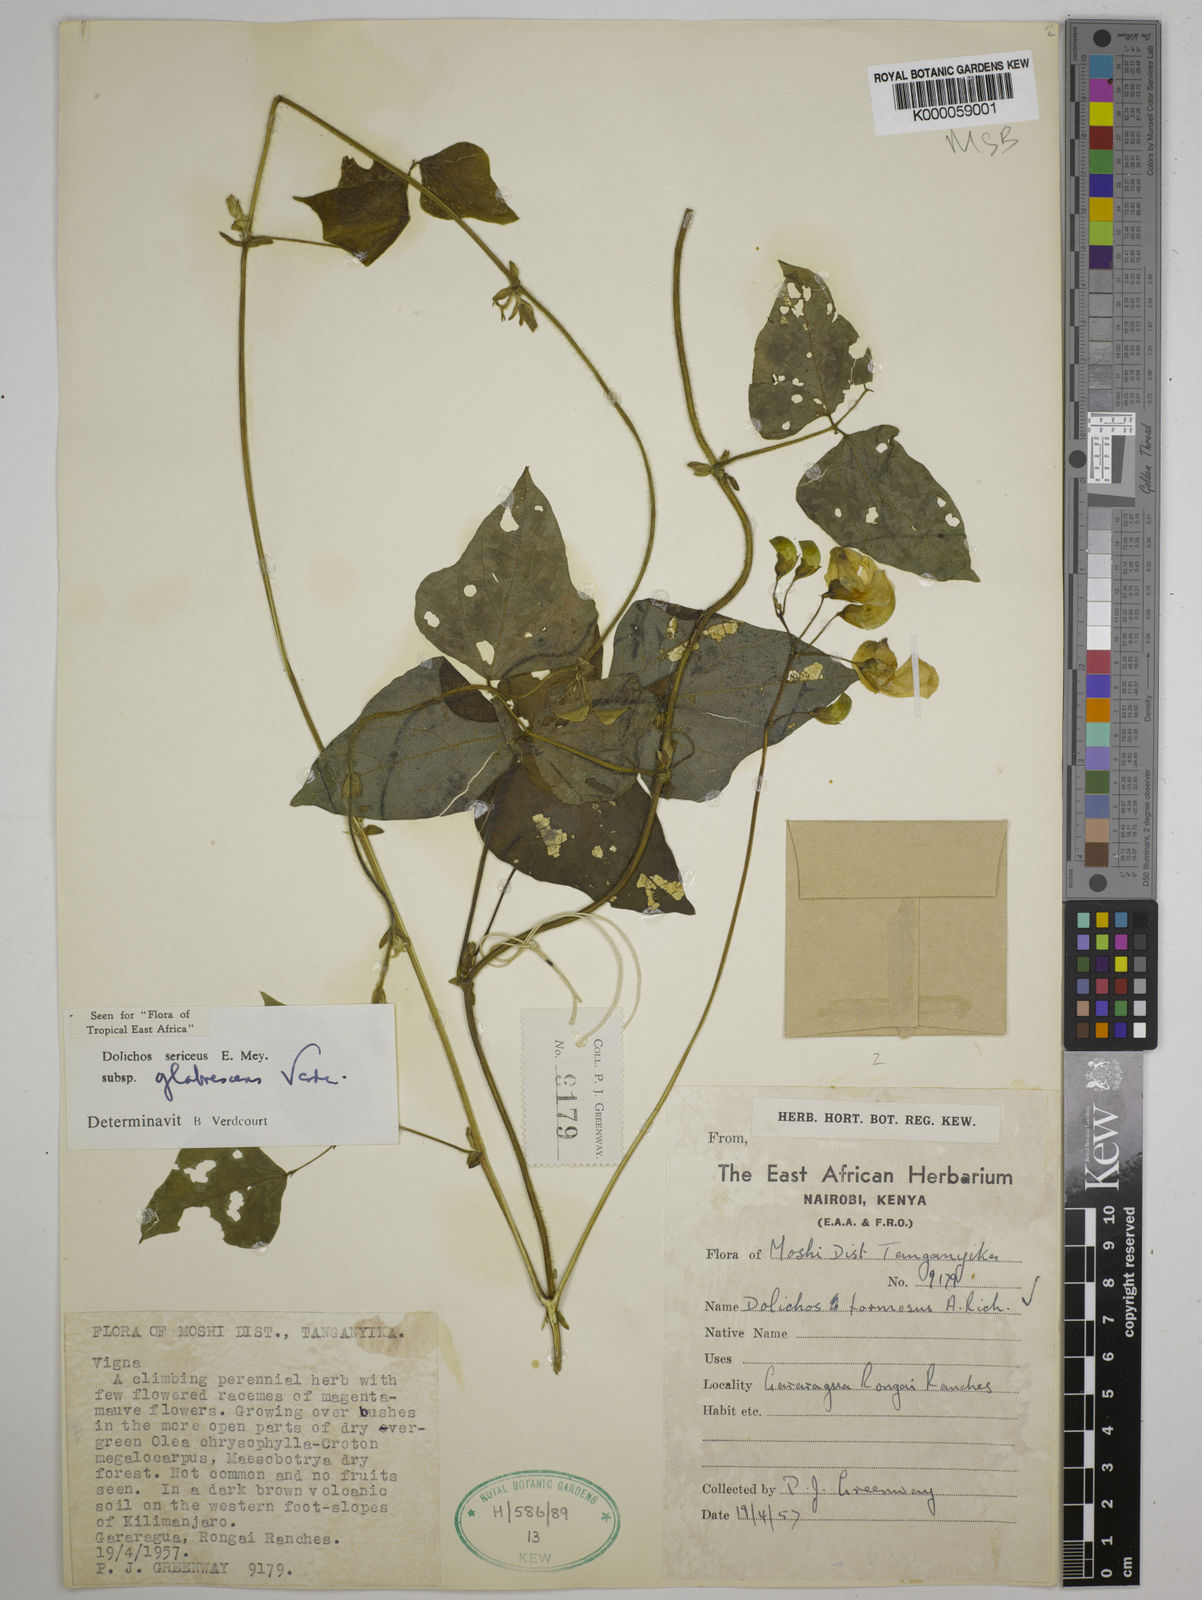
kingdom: Plantae
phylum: Tracheophyta
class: Magnoliopsida
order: Fabales
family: Fabaceae
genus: Dolichos
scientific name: Dolichos sericeus
